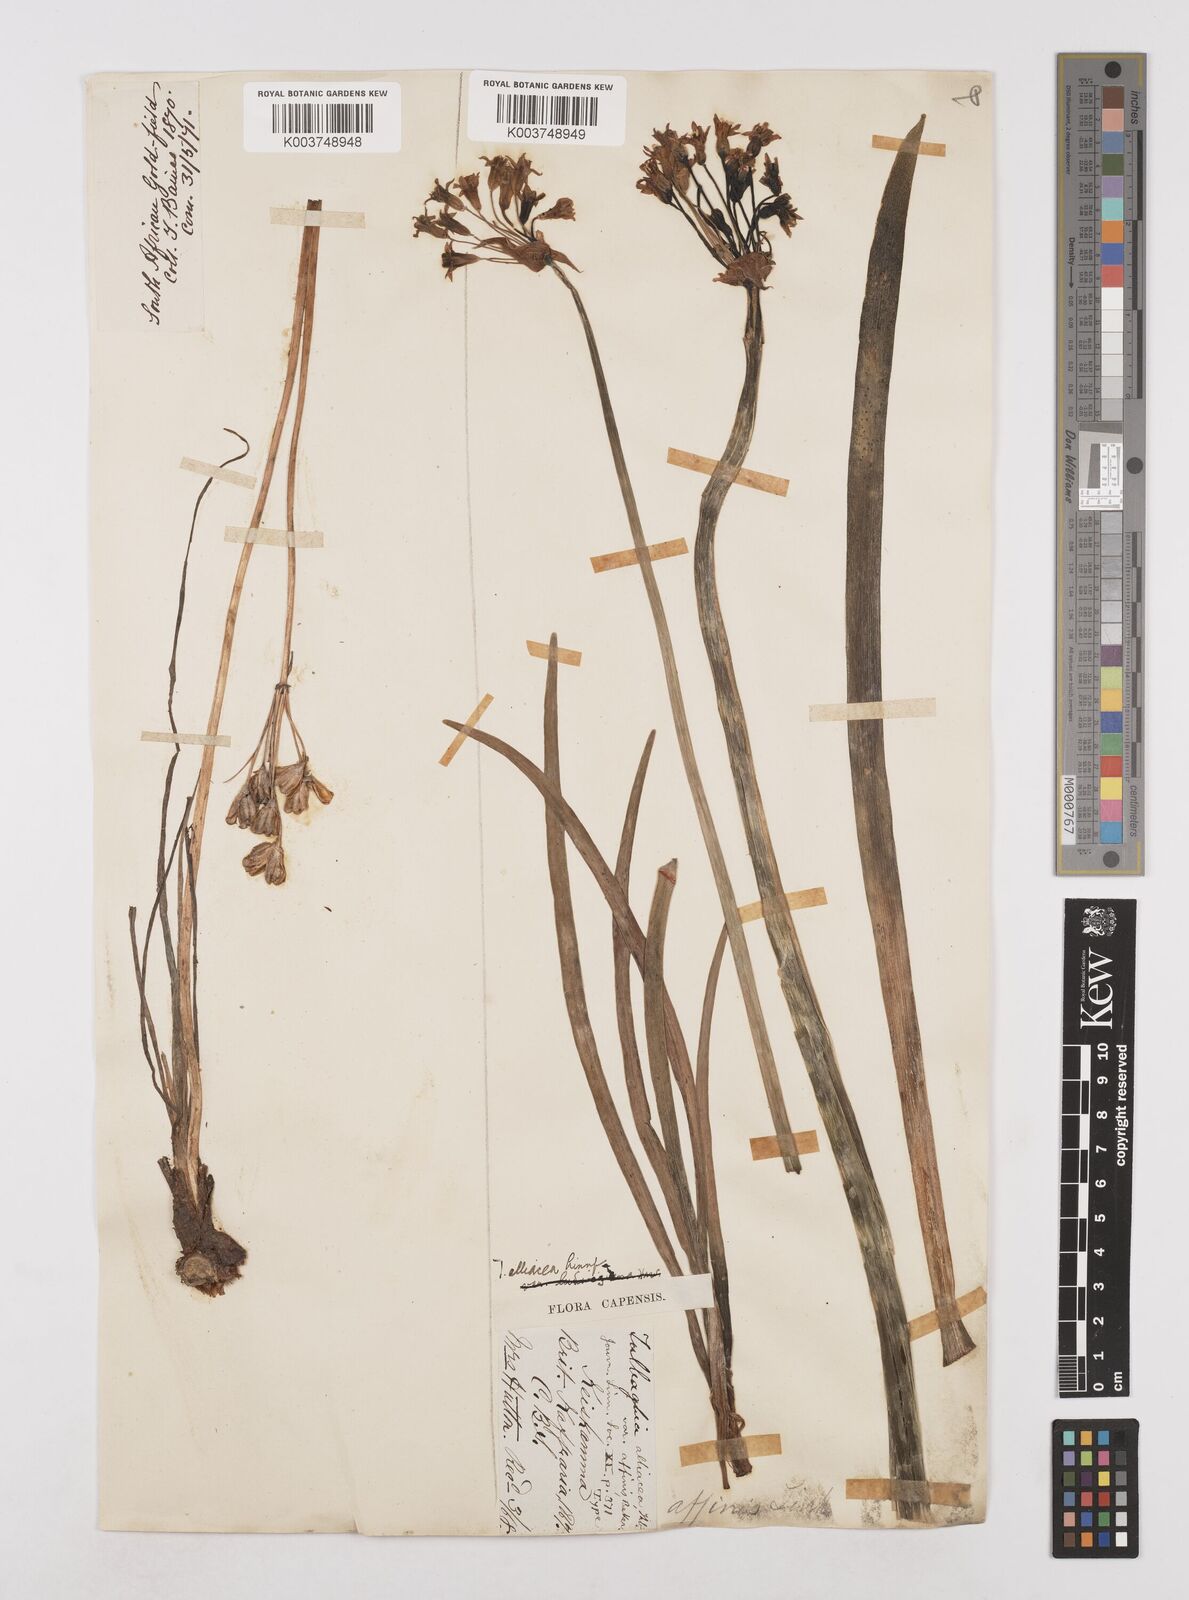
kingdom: Plantae
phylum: Tracheophyta
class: Liliopsida
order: Asparagales
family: Amaryllidaceae
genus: Tulbaghia
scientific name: Tulbaghia alliacea
